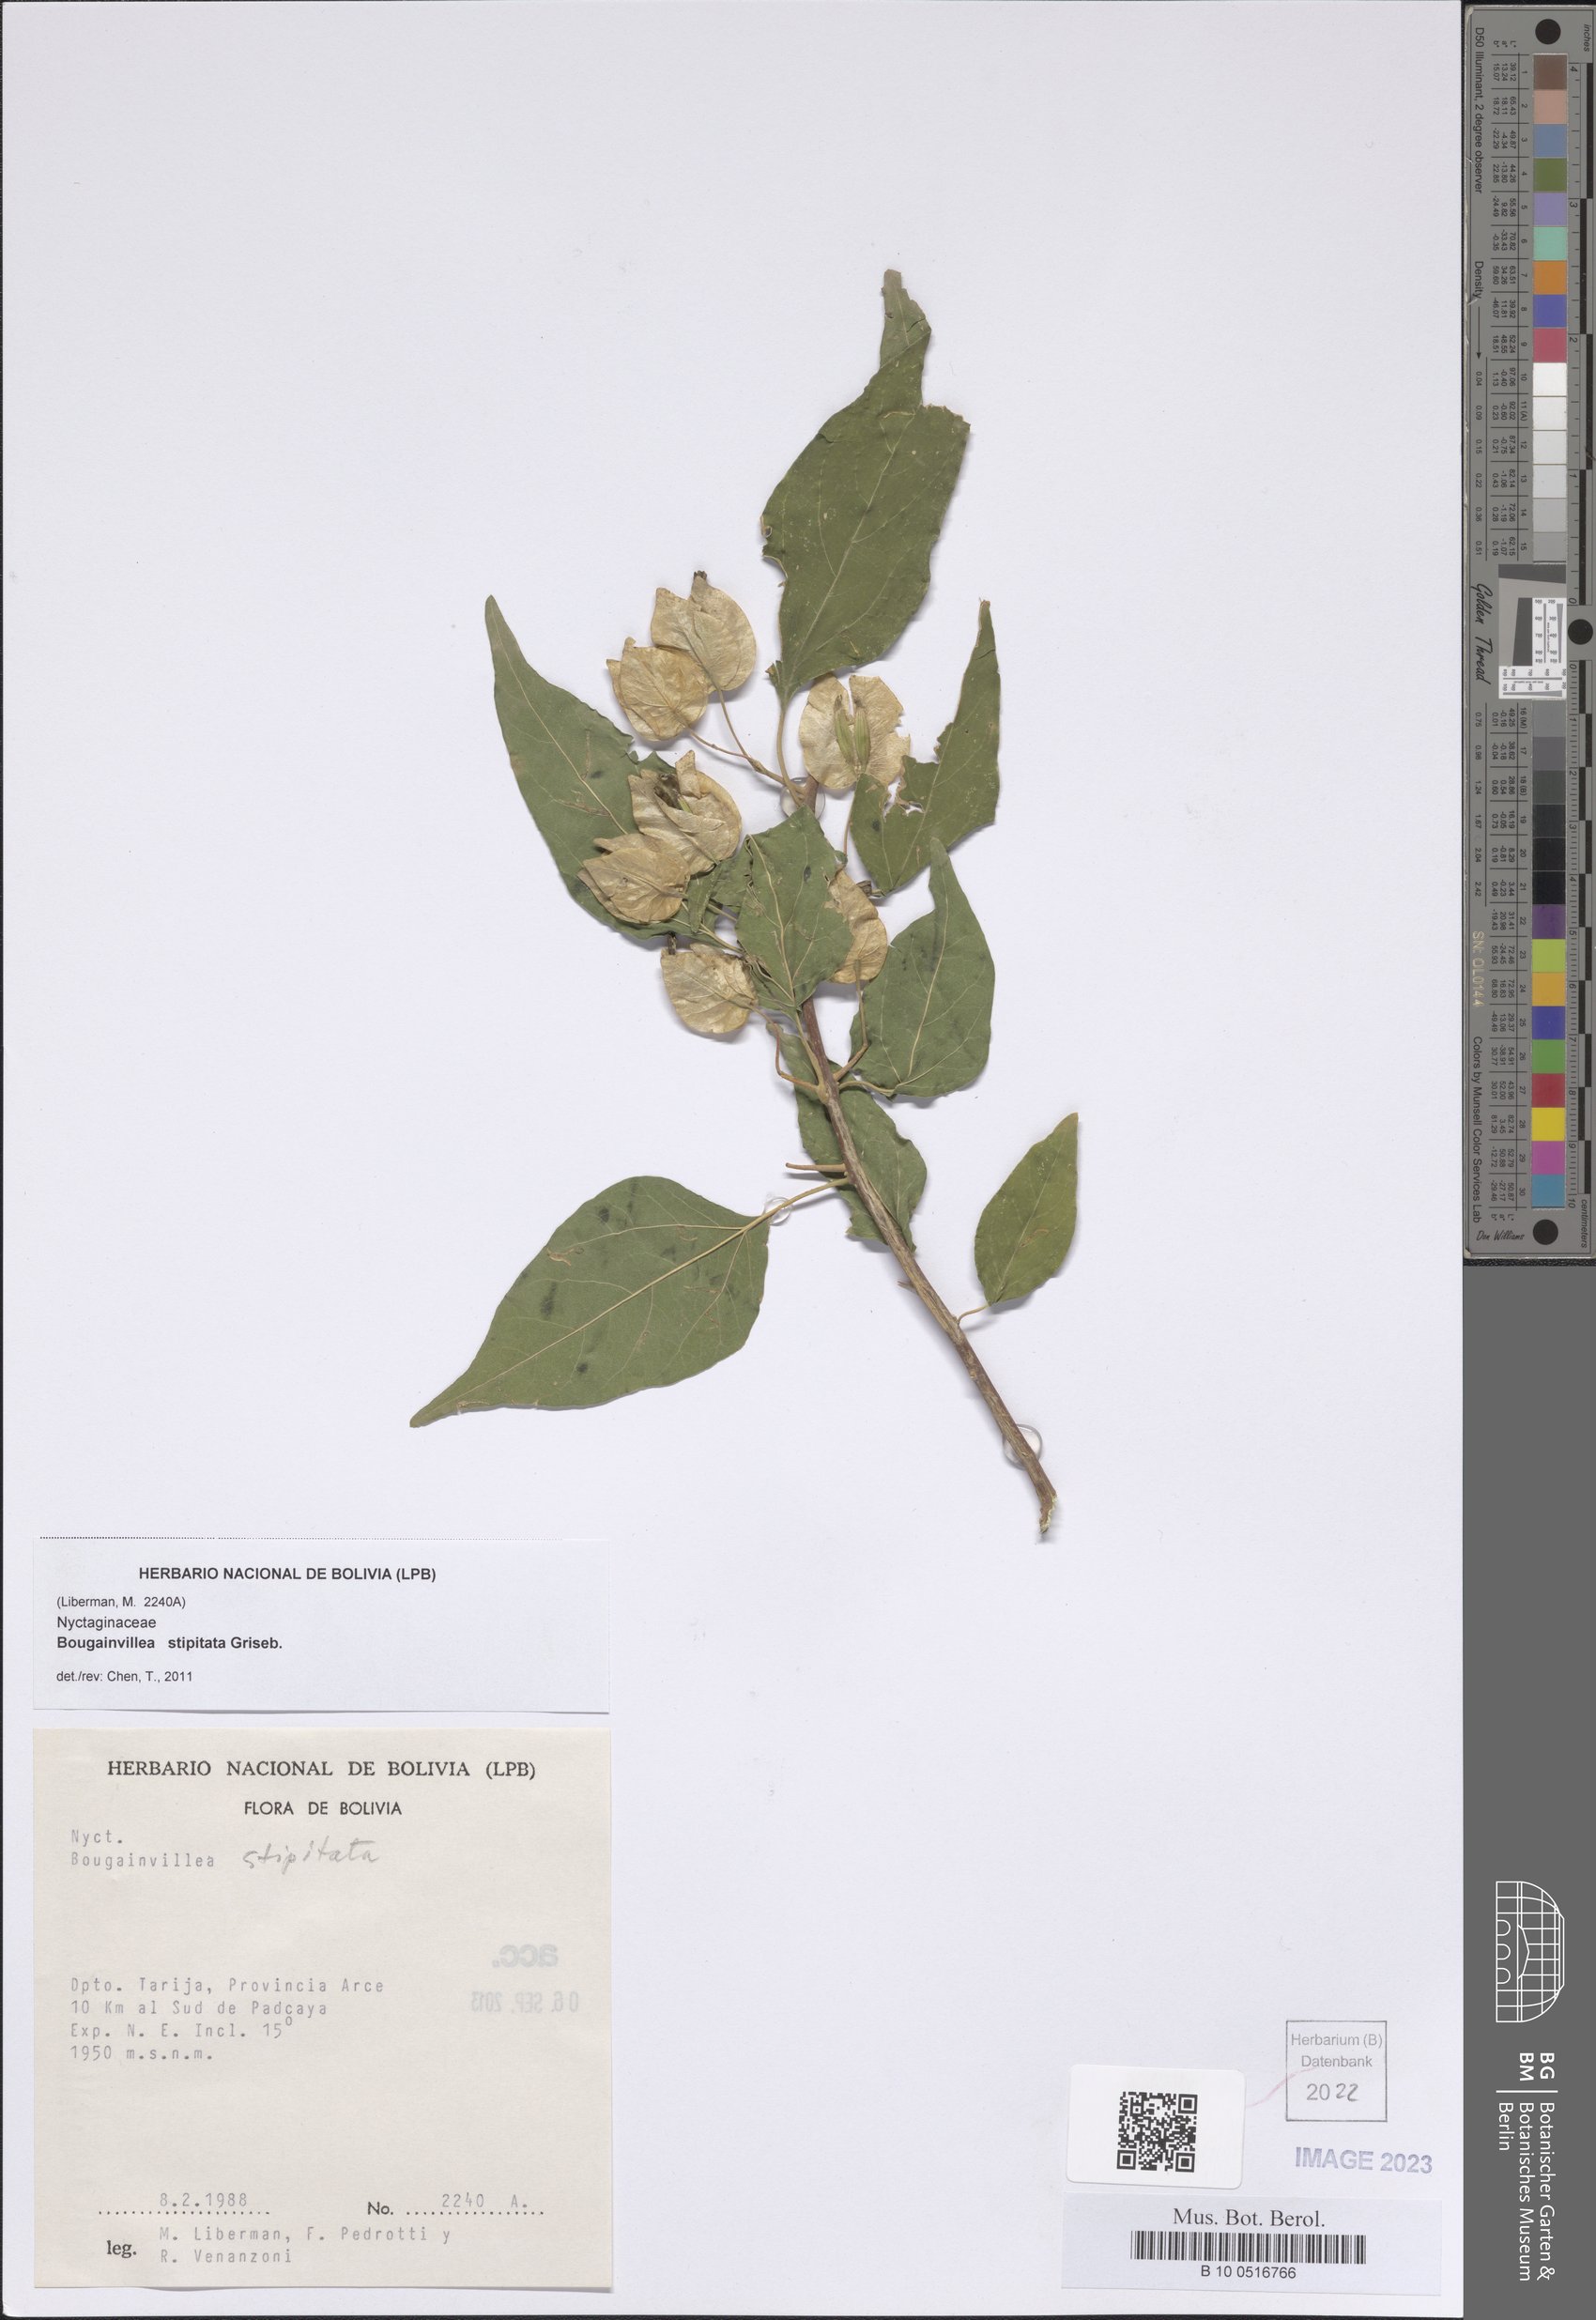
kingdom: Plantae
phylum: Tracheophyta
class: Magnoliopsida
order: Caryophyllales
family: Nyctaginaceae
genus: Bougainvillea
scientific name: Bougainvillea stipitata
